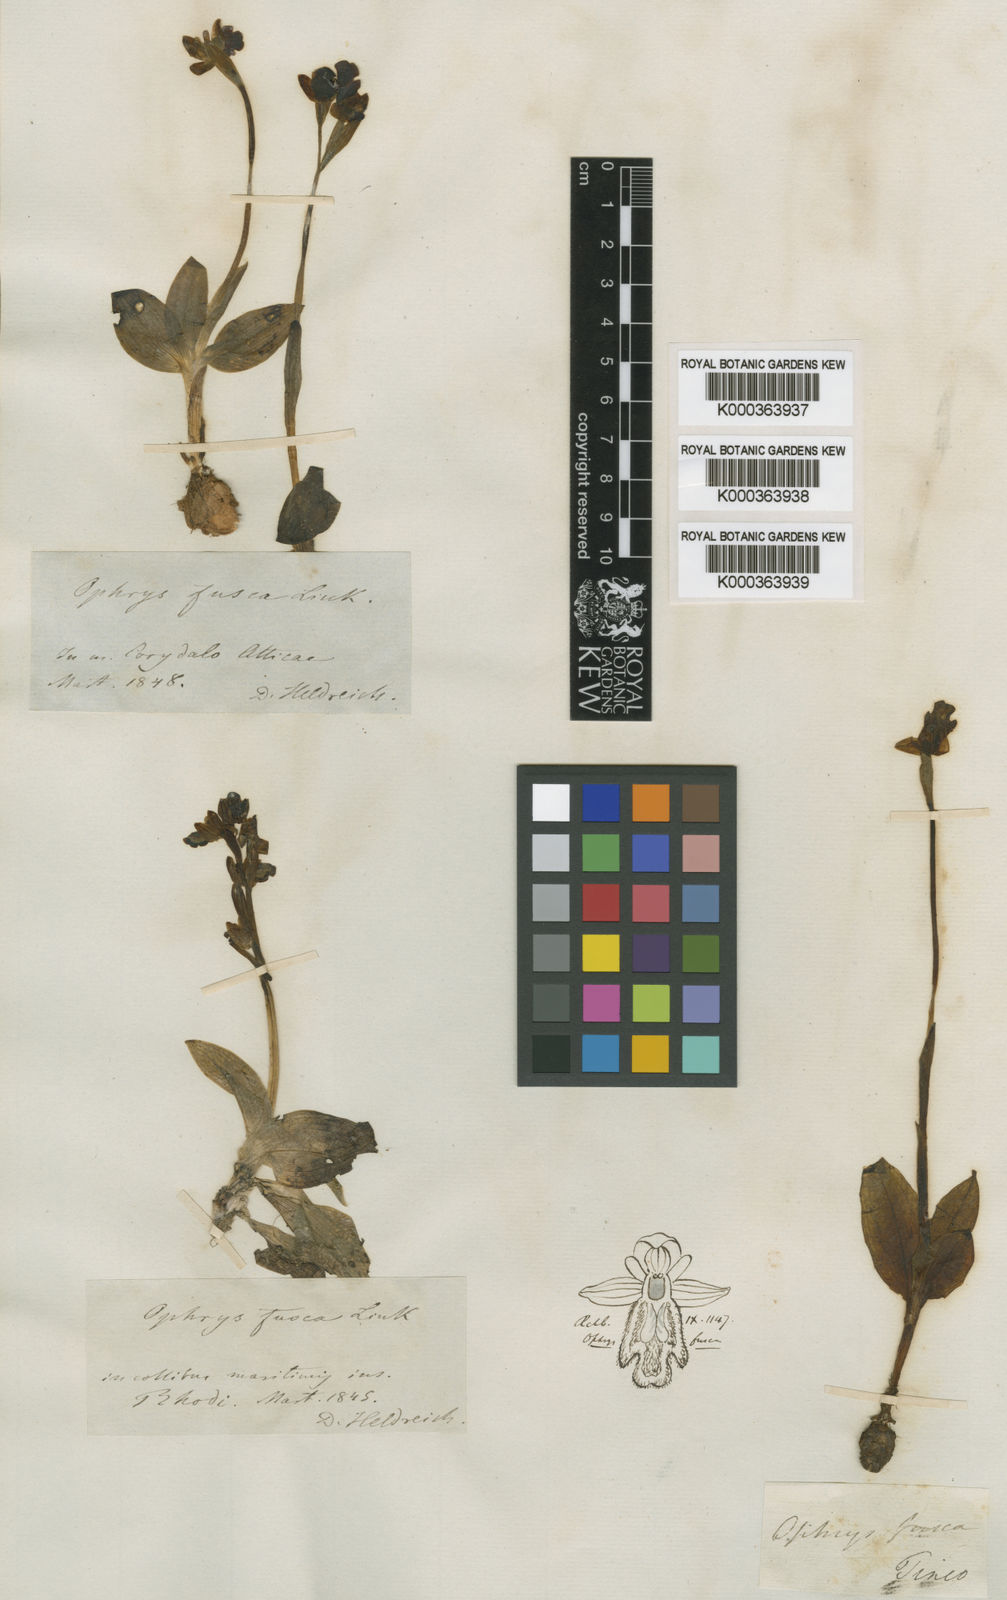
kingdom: Plantae
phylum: Tracheophyta
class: Liliopsida
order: Asparagales
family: Orchidaceae
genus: Ophrys
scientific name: Ophrys fusca
